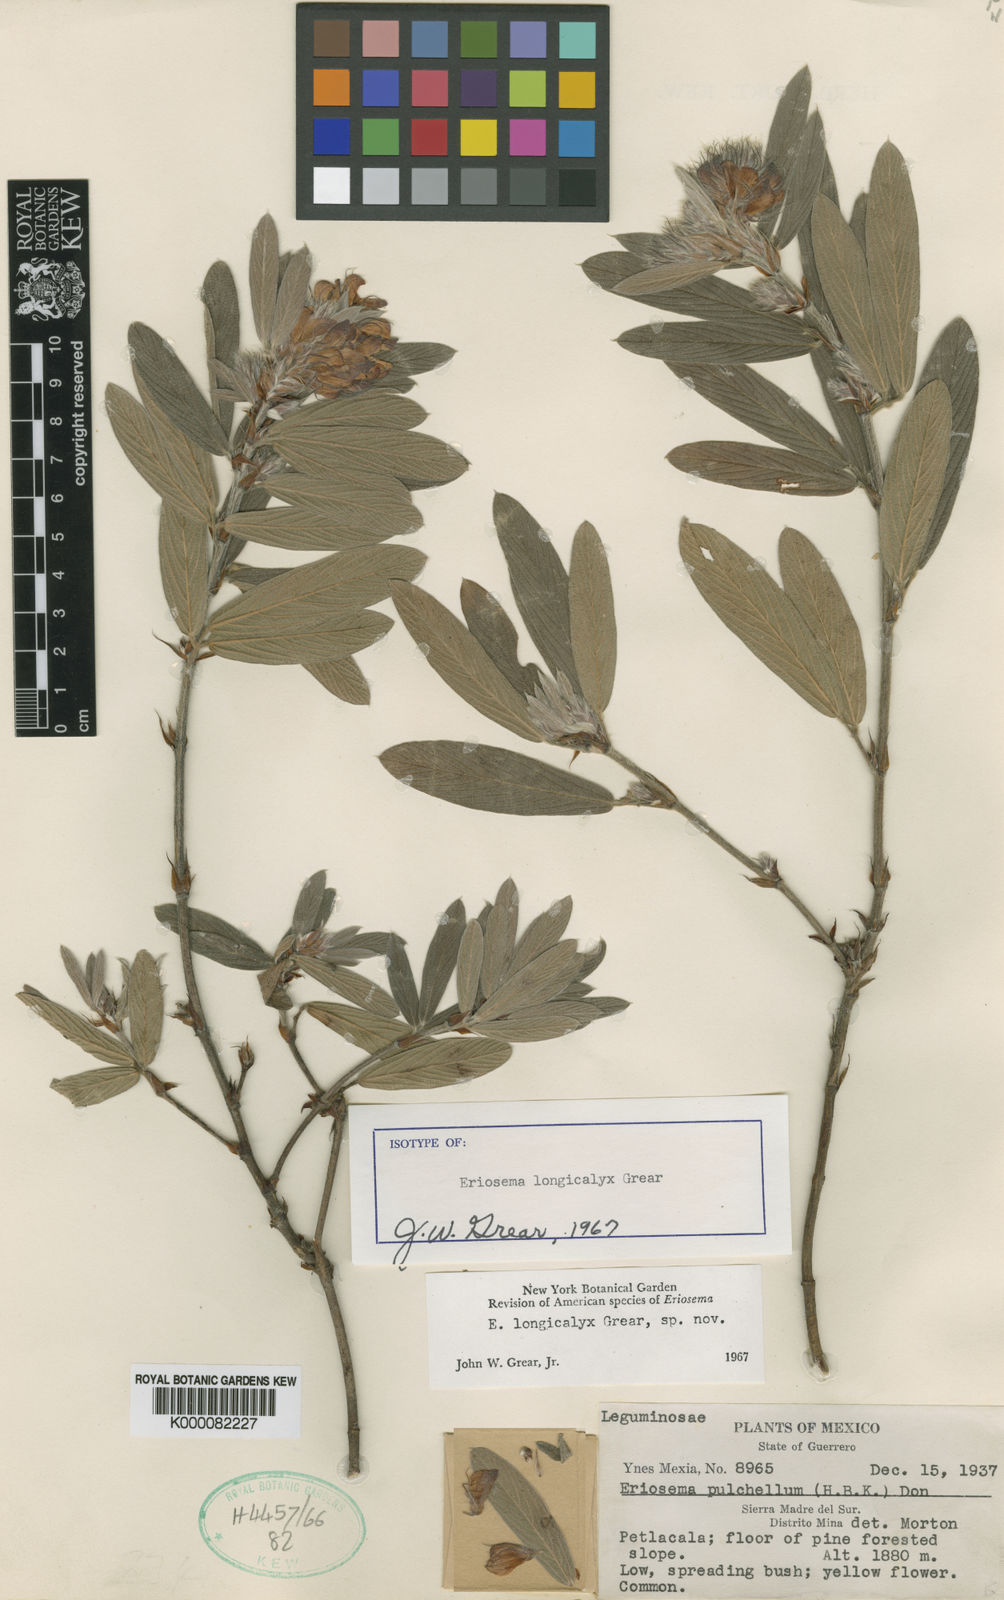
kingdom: Plantae
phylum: Tracheophyta
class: Magnoliopsida
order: Fabales
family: Fabaceae
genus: Eriosema
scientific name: Eriosema longicalyx
